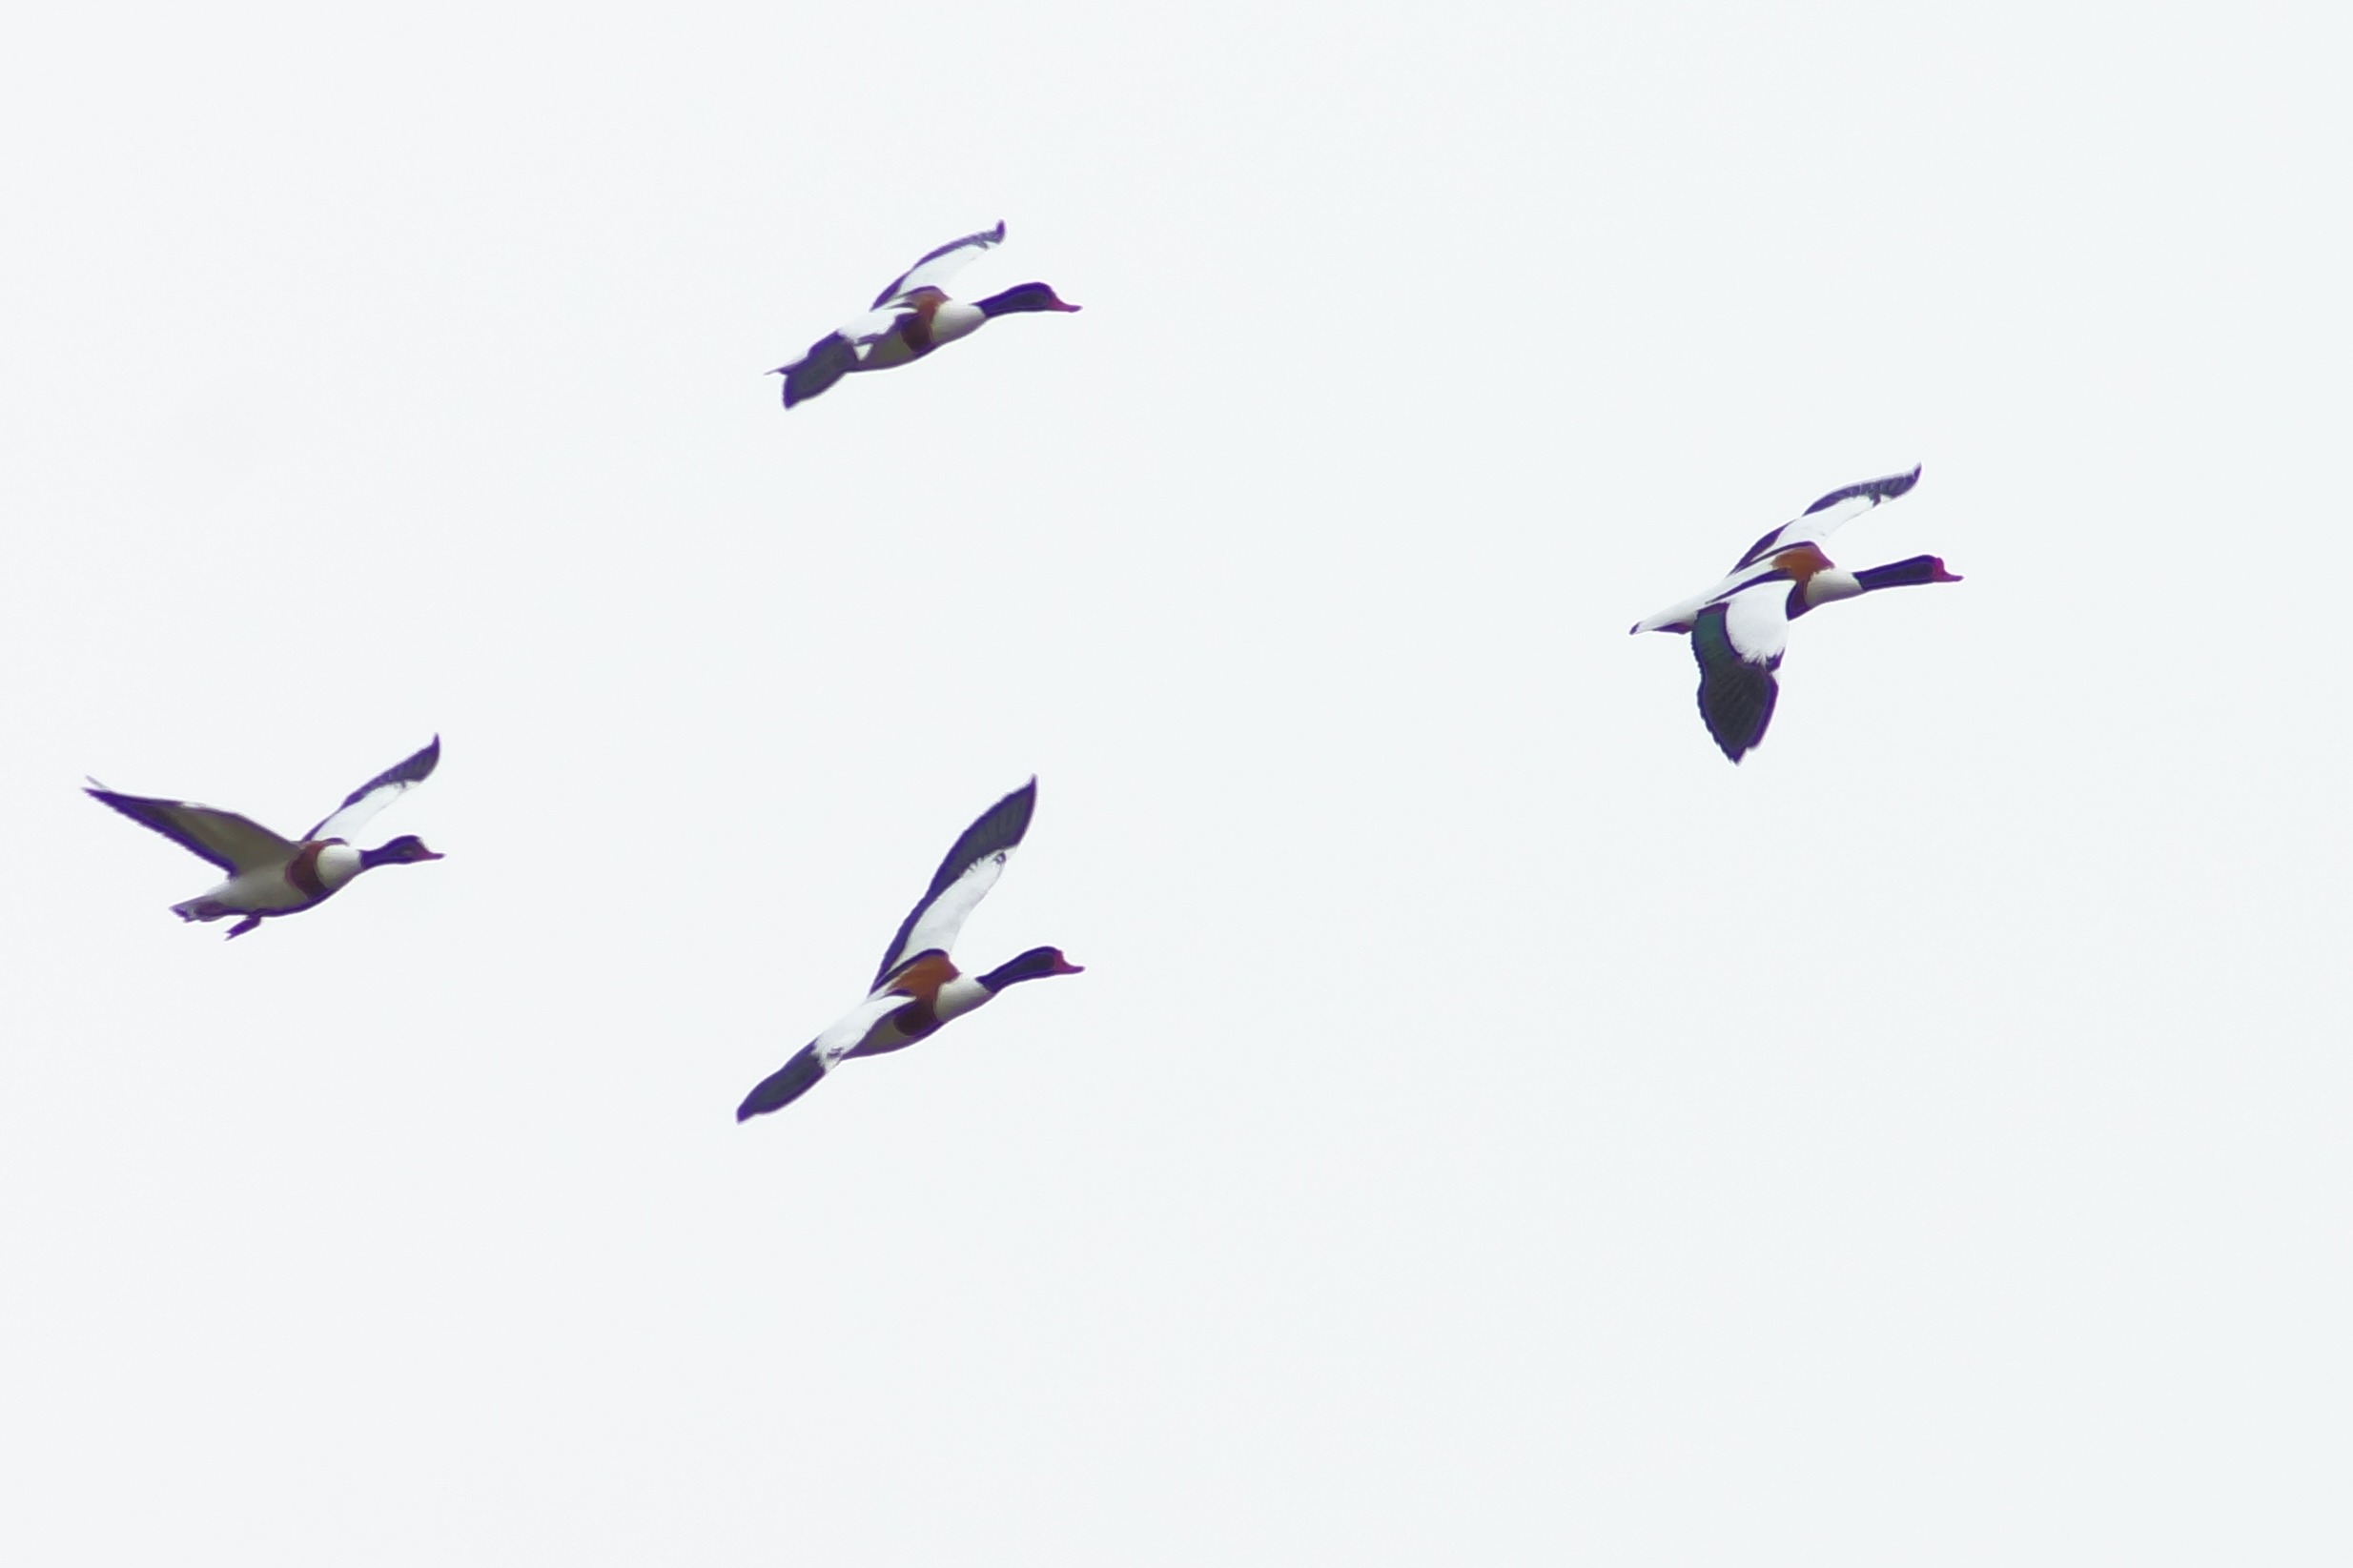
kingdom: Animalia
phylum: Chordata
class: Aves
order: Anseriformes
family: Anatidae
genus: Tadorna
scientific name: Tadorna tadorna
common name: Gravand
